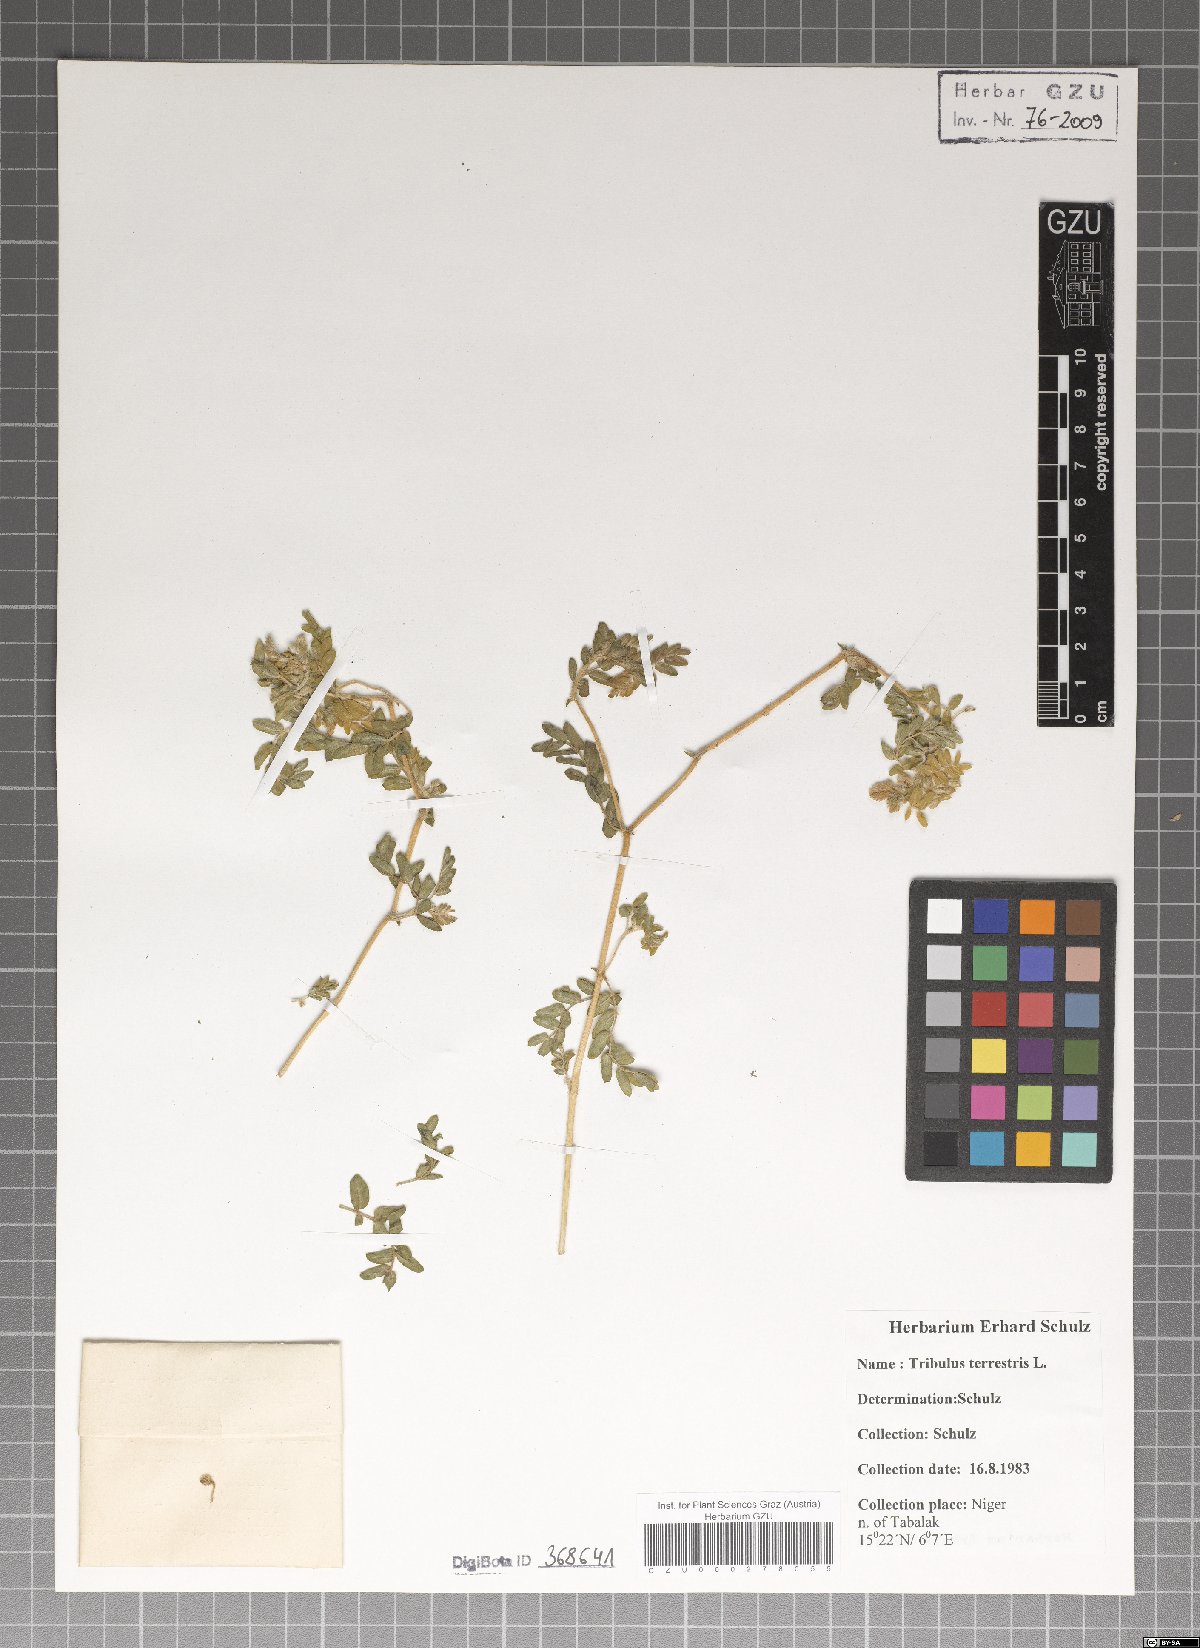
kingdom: Plantae
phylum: Tracheophyta
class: Magnoliopsida
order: Zygophyllales
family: Zygophyllaceae
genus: Tribulus
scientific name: Tribulus terrestris
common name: Puncturevine
